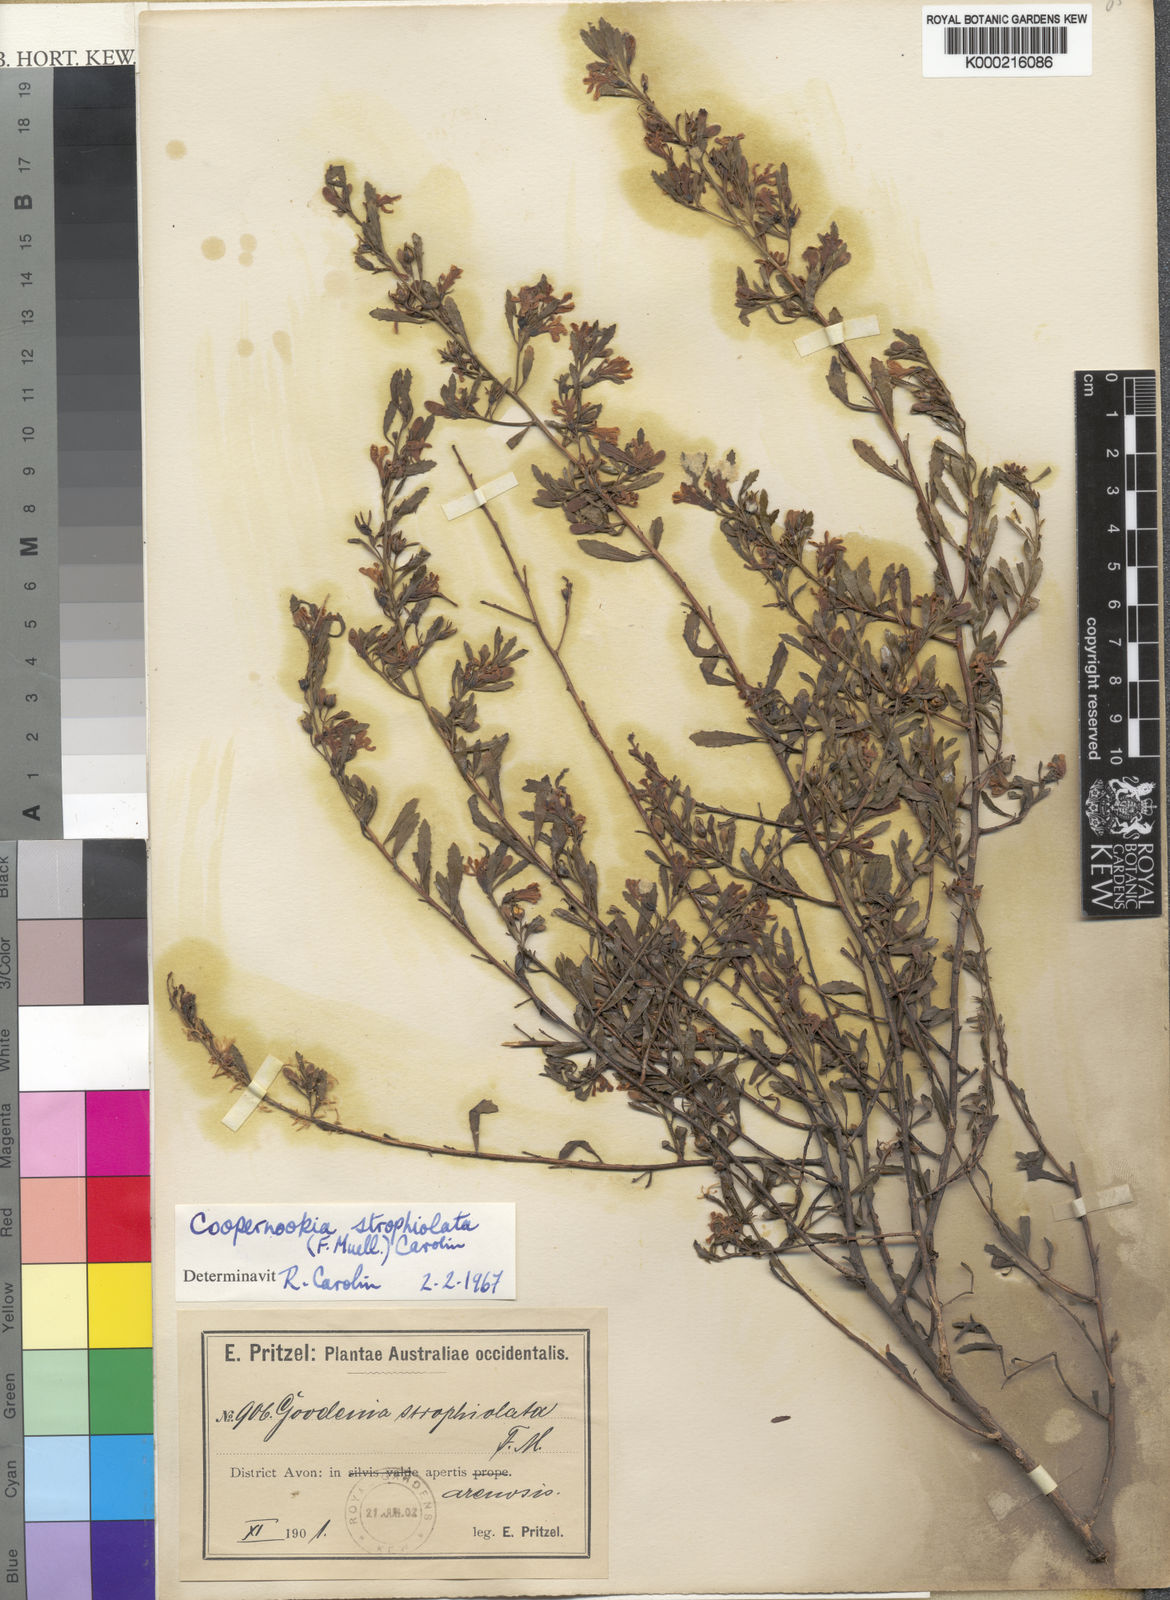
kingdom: Plantae
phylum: Tracheophyta
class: Magnoliopsida
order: Asterales
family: Goodeniaceae
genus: Goodenia
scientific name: Goodenia strophiolata
